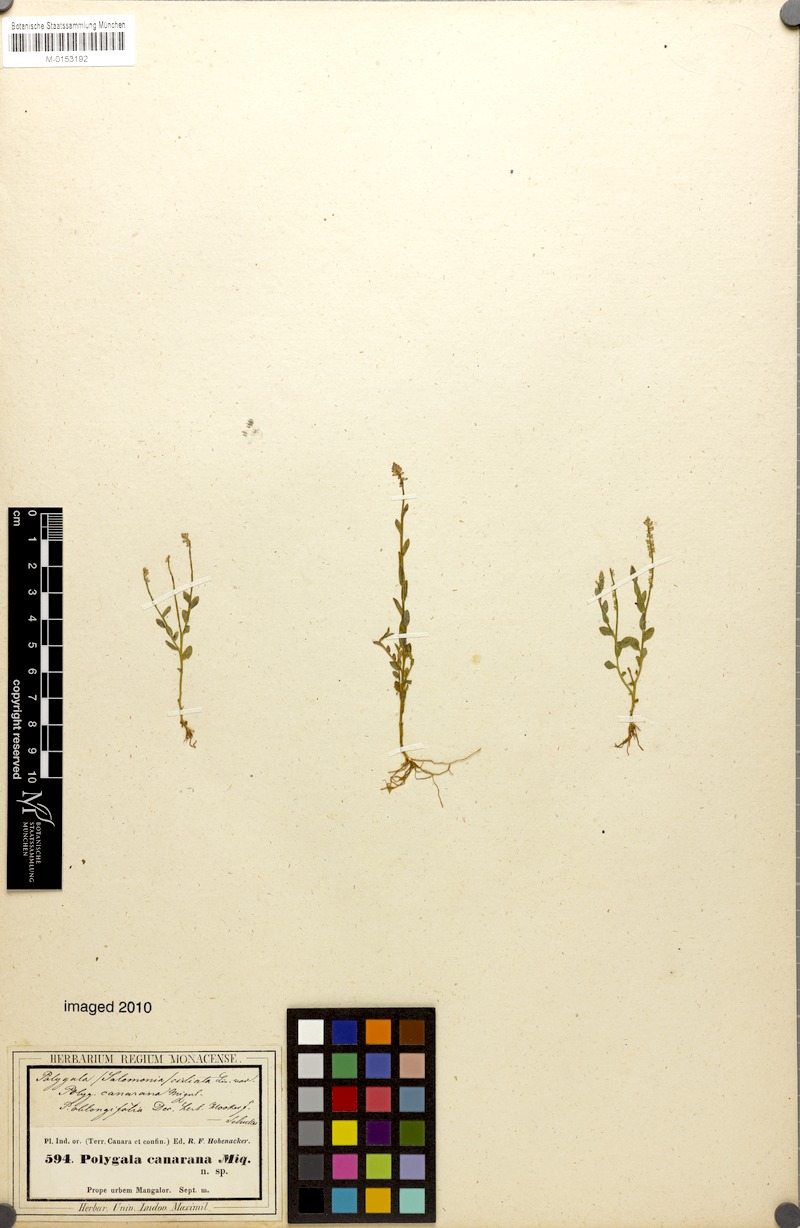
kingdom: Plantae
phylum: Tracheophyta
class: Magnoliopsida
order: Fabales
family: Polygalaceae
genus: Salomonia
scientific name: Salomonia ciliata
